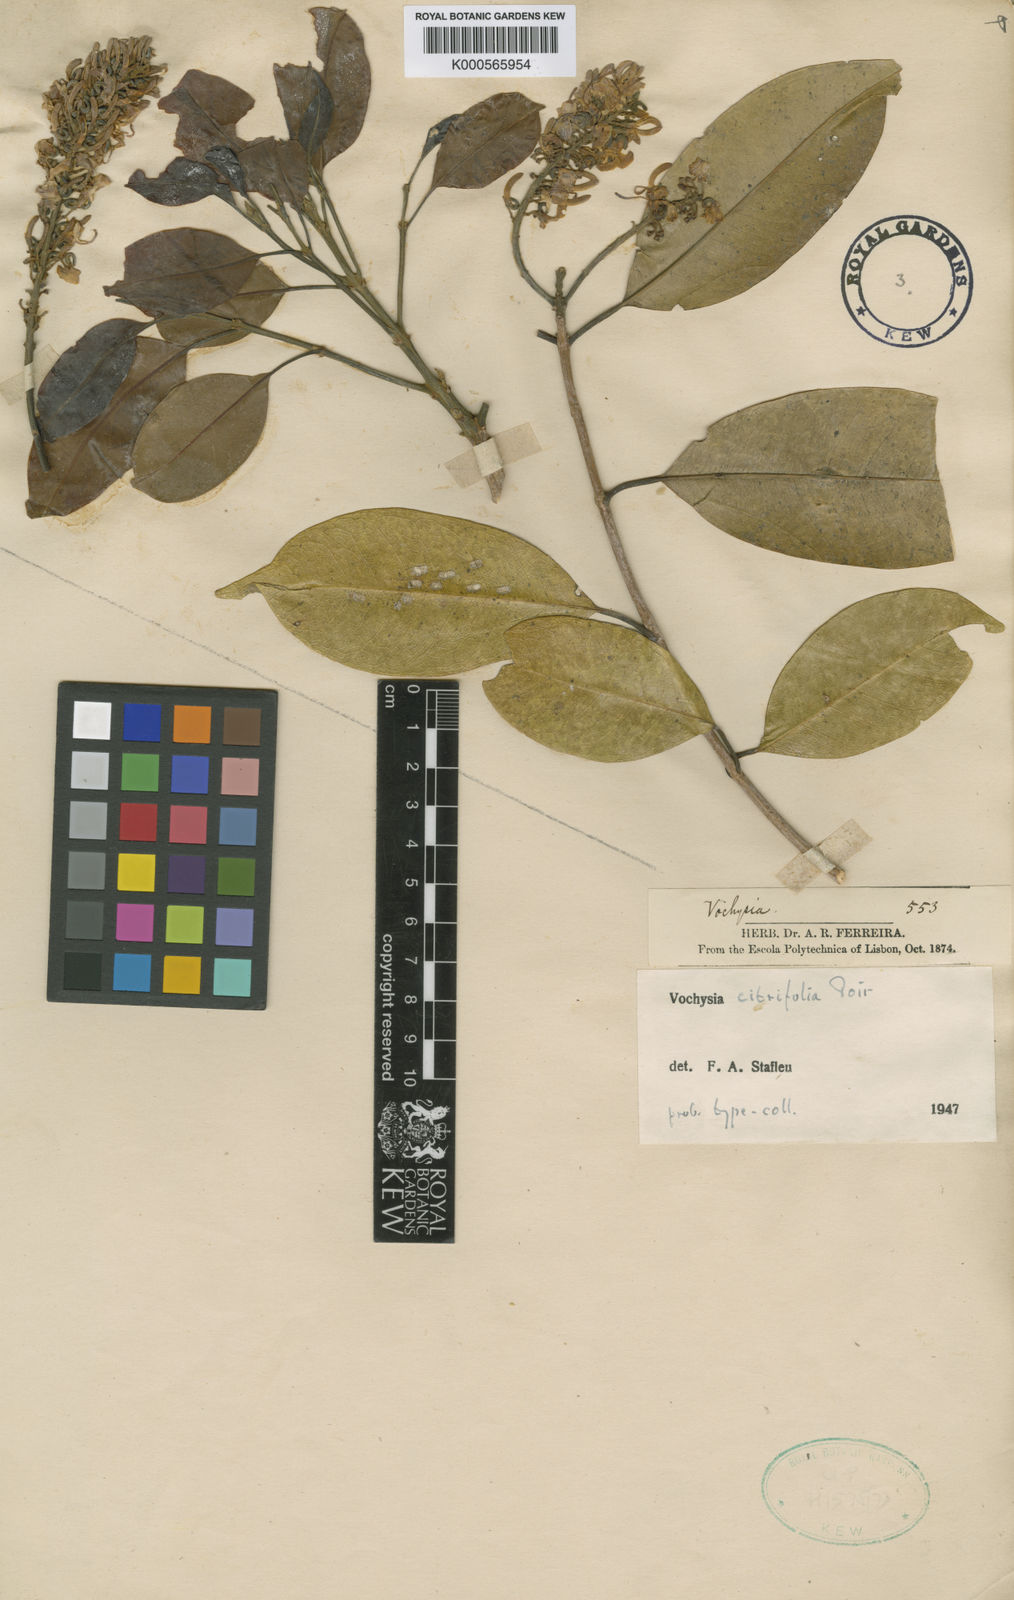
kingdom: Plantae
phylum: Tracheophyta
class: Magnoliopsida
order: Myrtales
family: Vochysiaceae
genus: Vochysia
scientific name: Vochysia citrifolia
